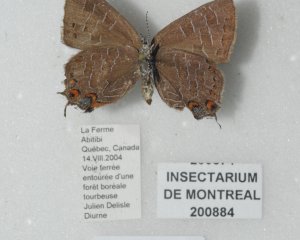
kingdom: Animalia
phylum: Arthropoda
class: Insecta
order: Lepidoptera
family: Lycaenidae
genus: Satyrium
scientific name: Satyrium liparops
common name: Striped Hairstreak
